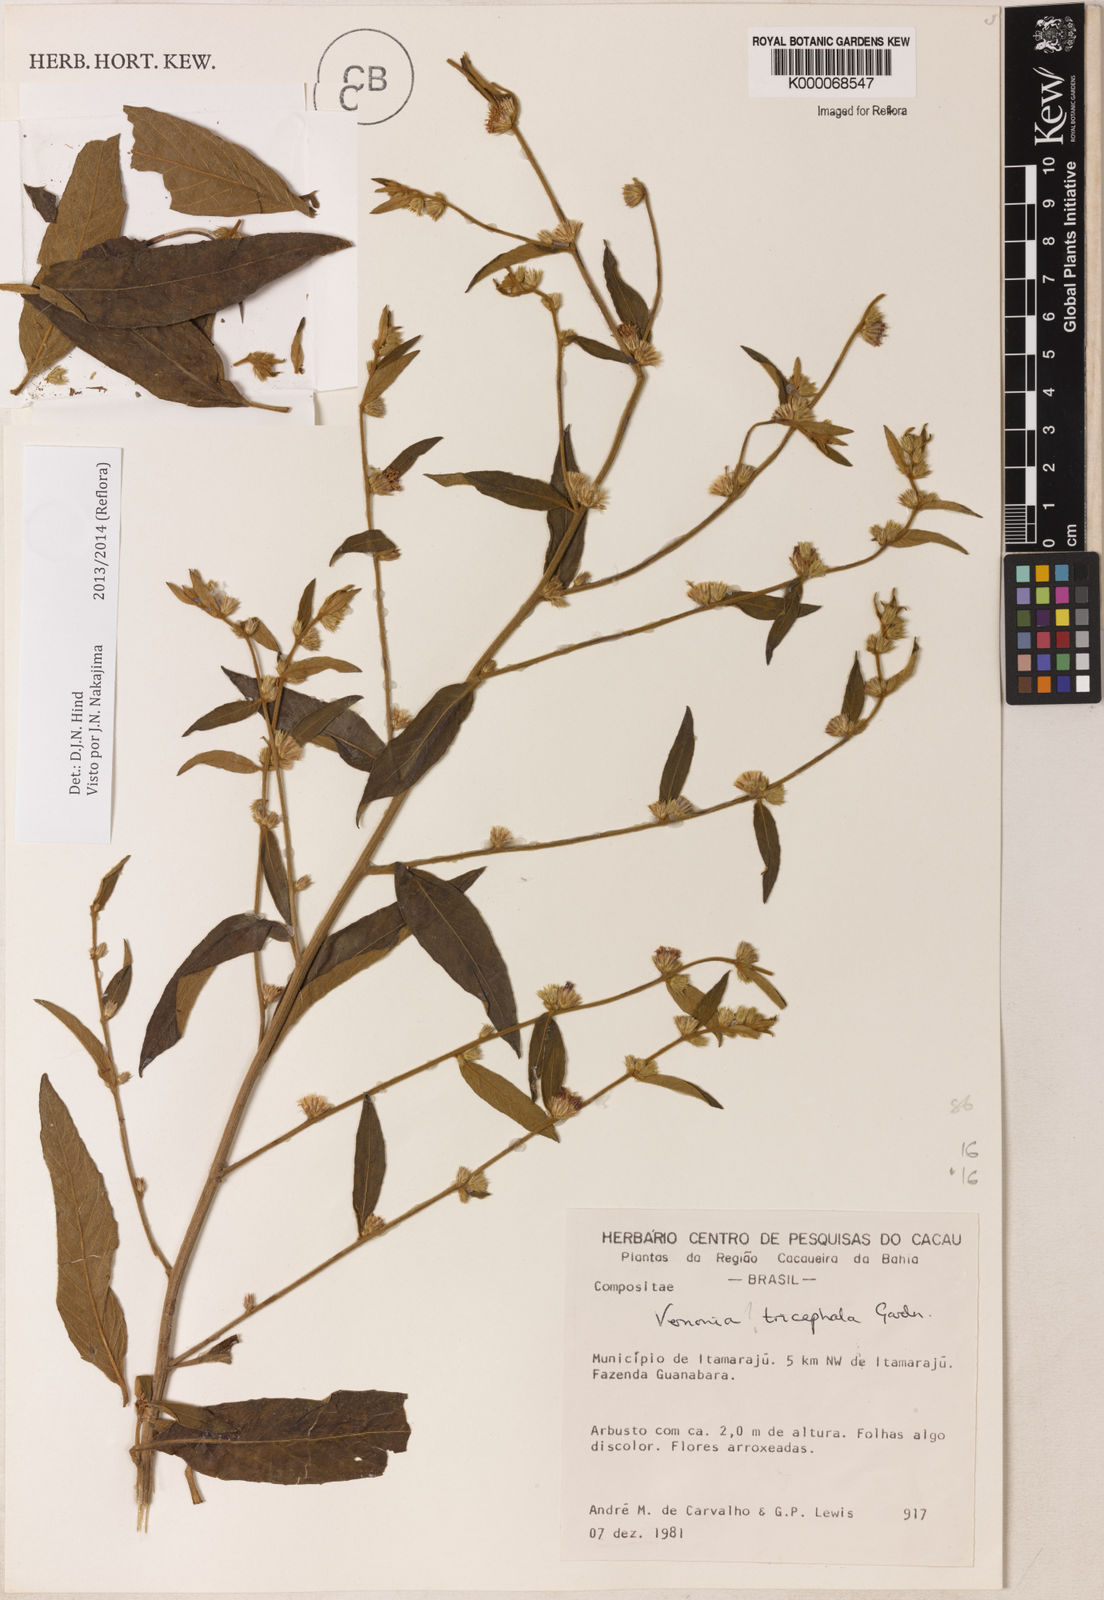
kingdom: Plantae
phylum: Tracheophyta
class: Magnoliopsida
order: Asterales
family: Asteraceae
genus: Lepidaploa
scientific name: Lepidaploa rufogrisea
